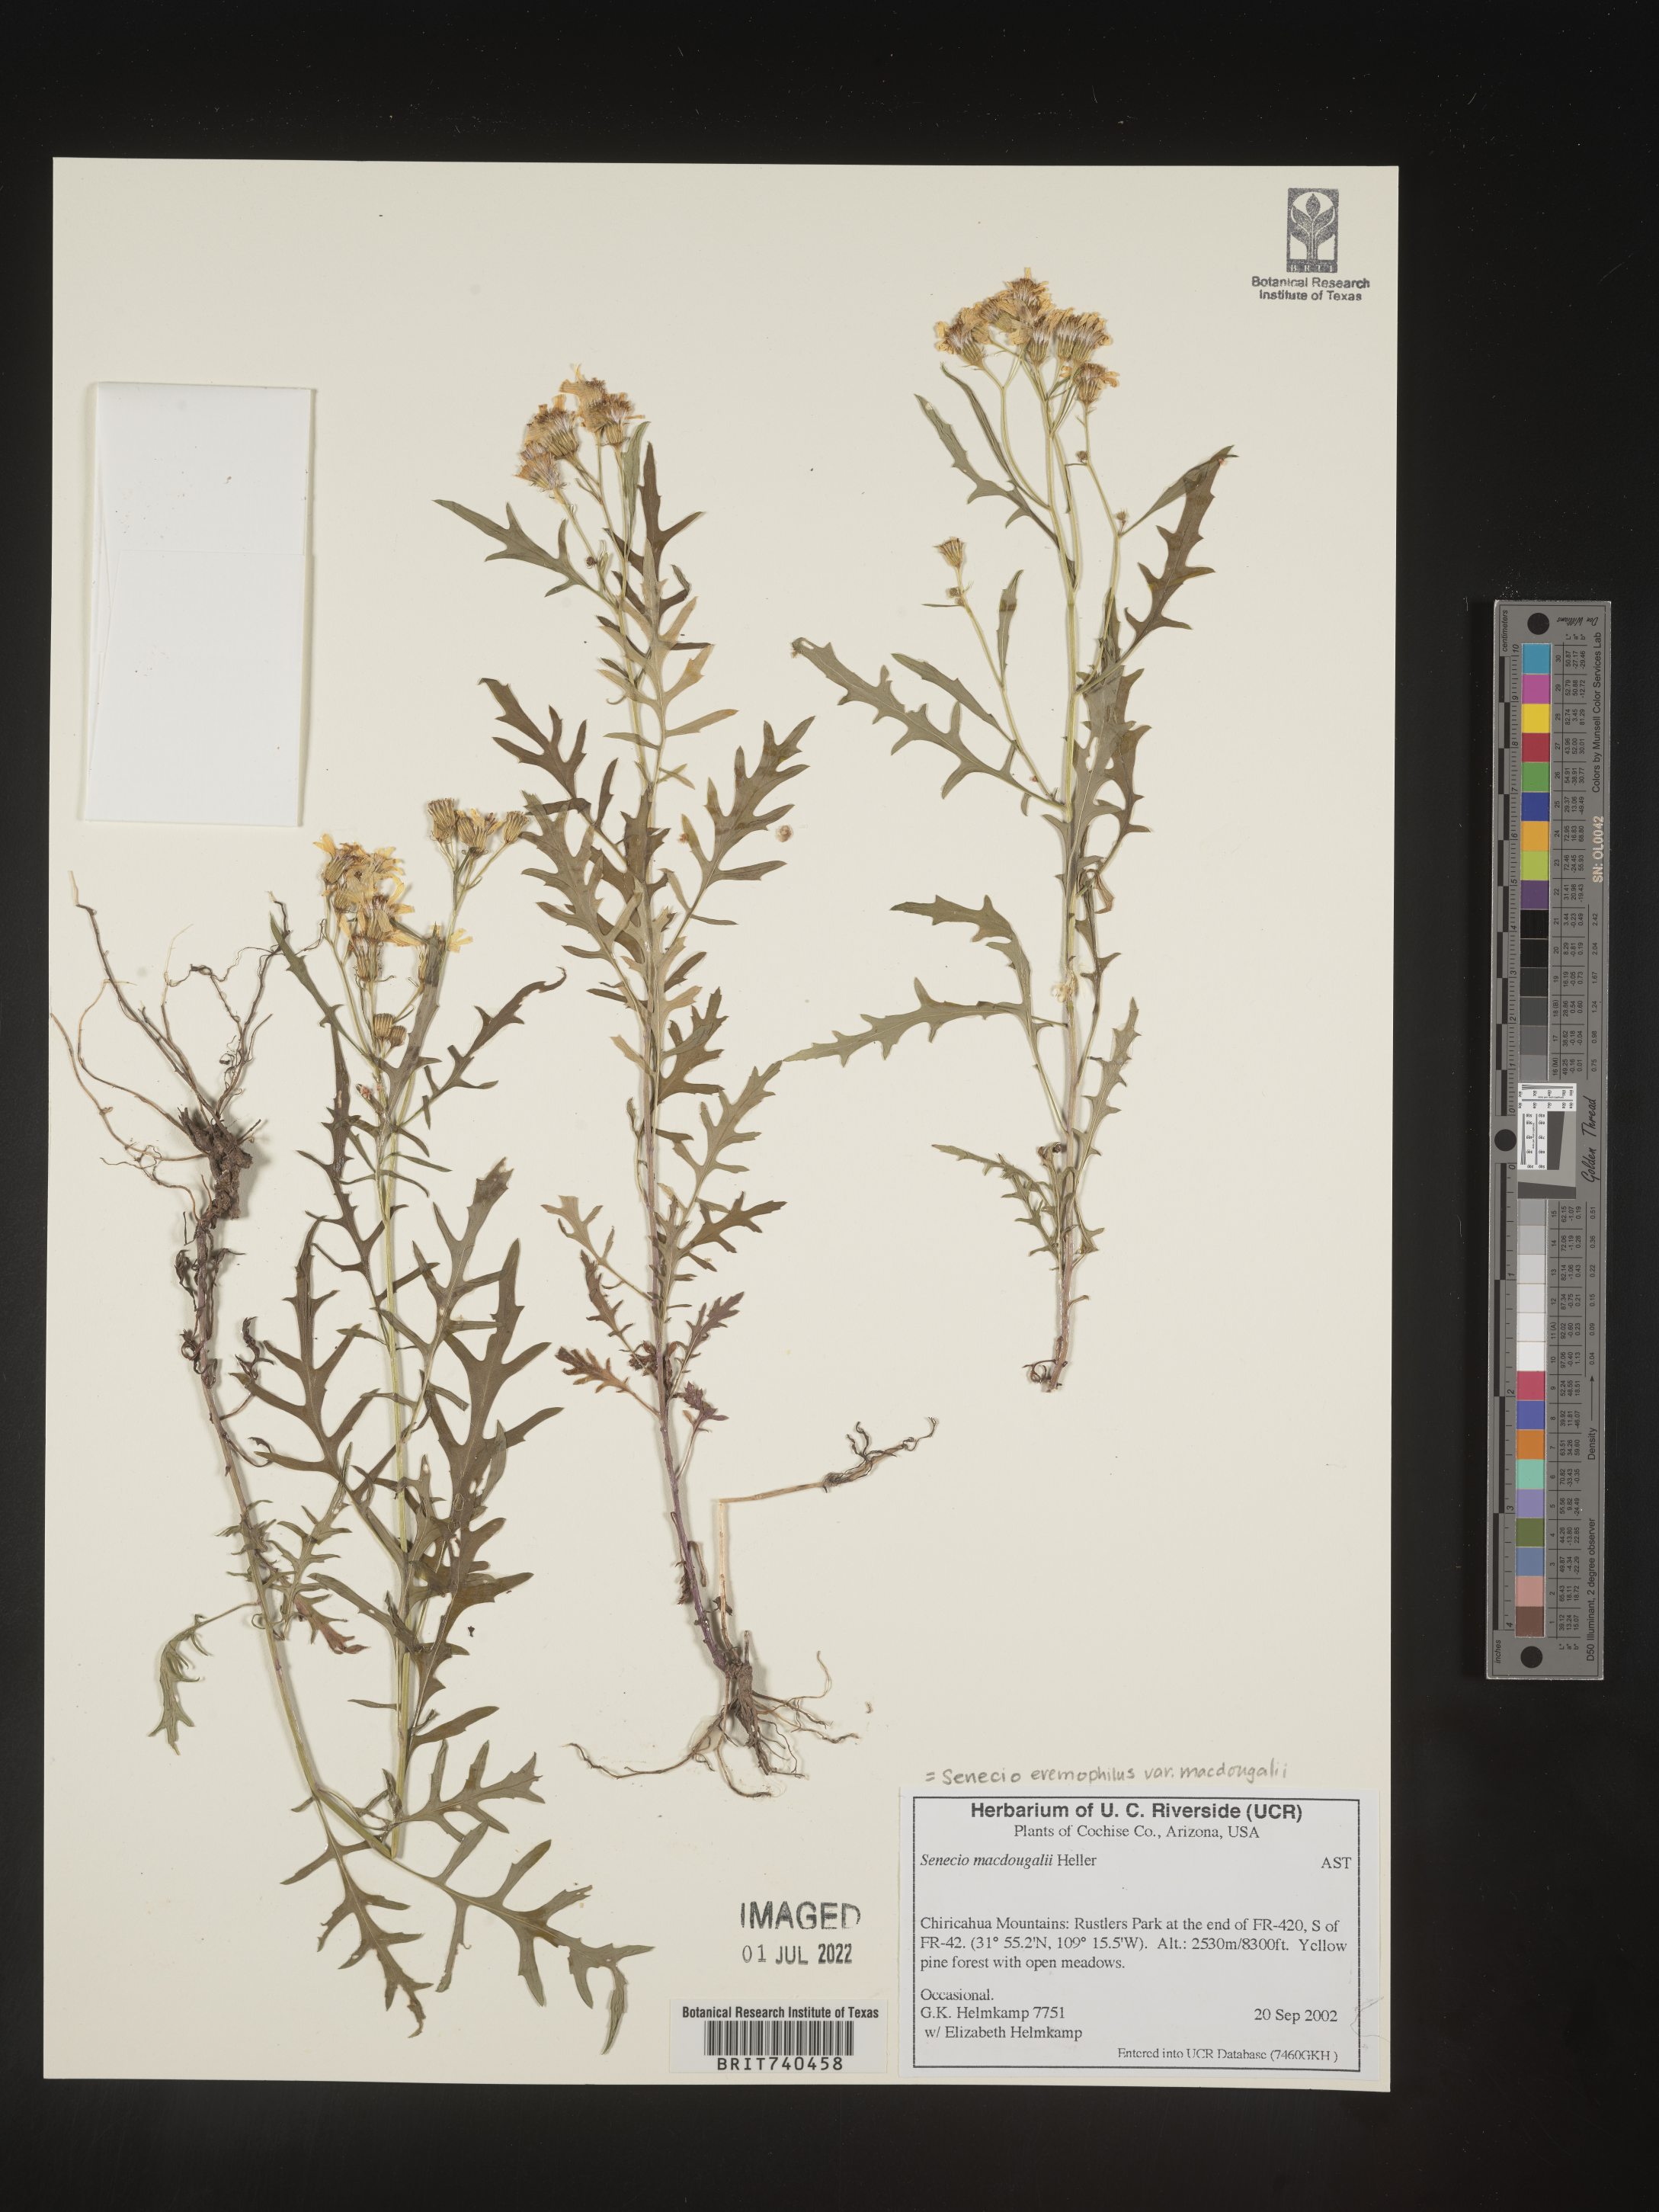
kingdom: Plantae
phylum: Tracheophyta
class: Magnoliopsida
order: Asterales
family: Asteraceae
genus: Senecio
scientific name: Senecio eremophilus
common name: Desert ragwort
